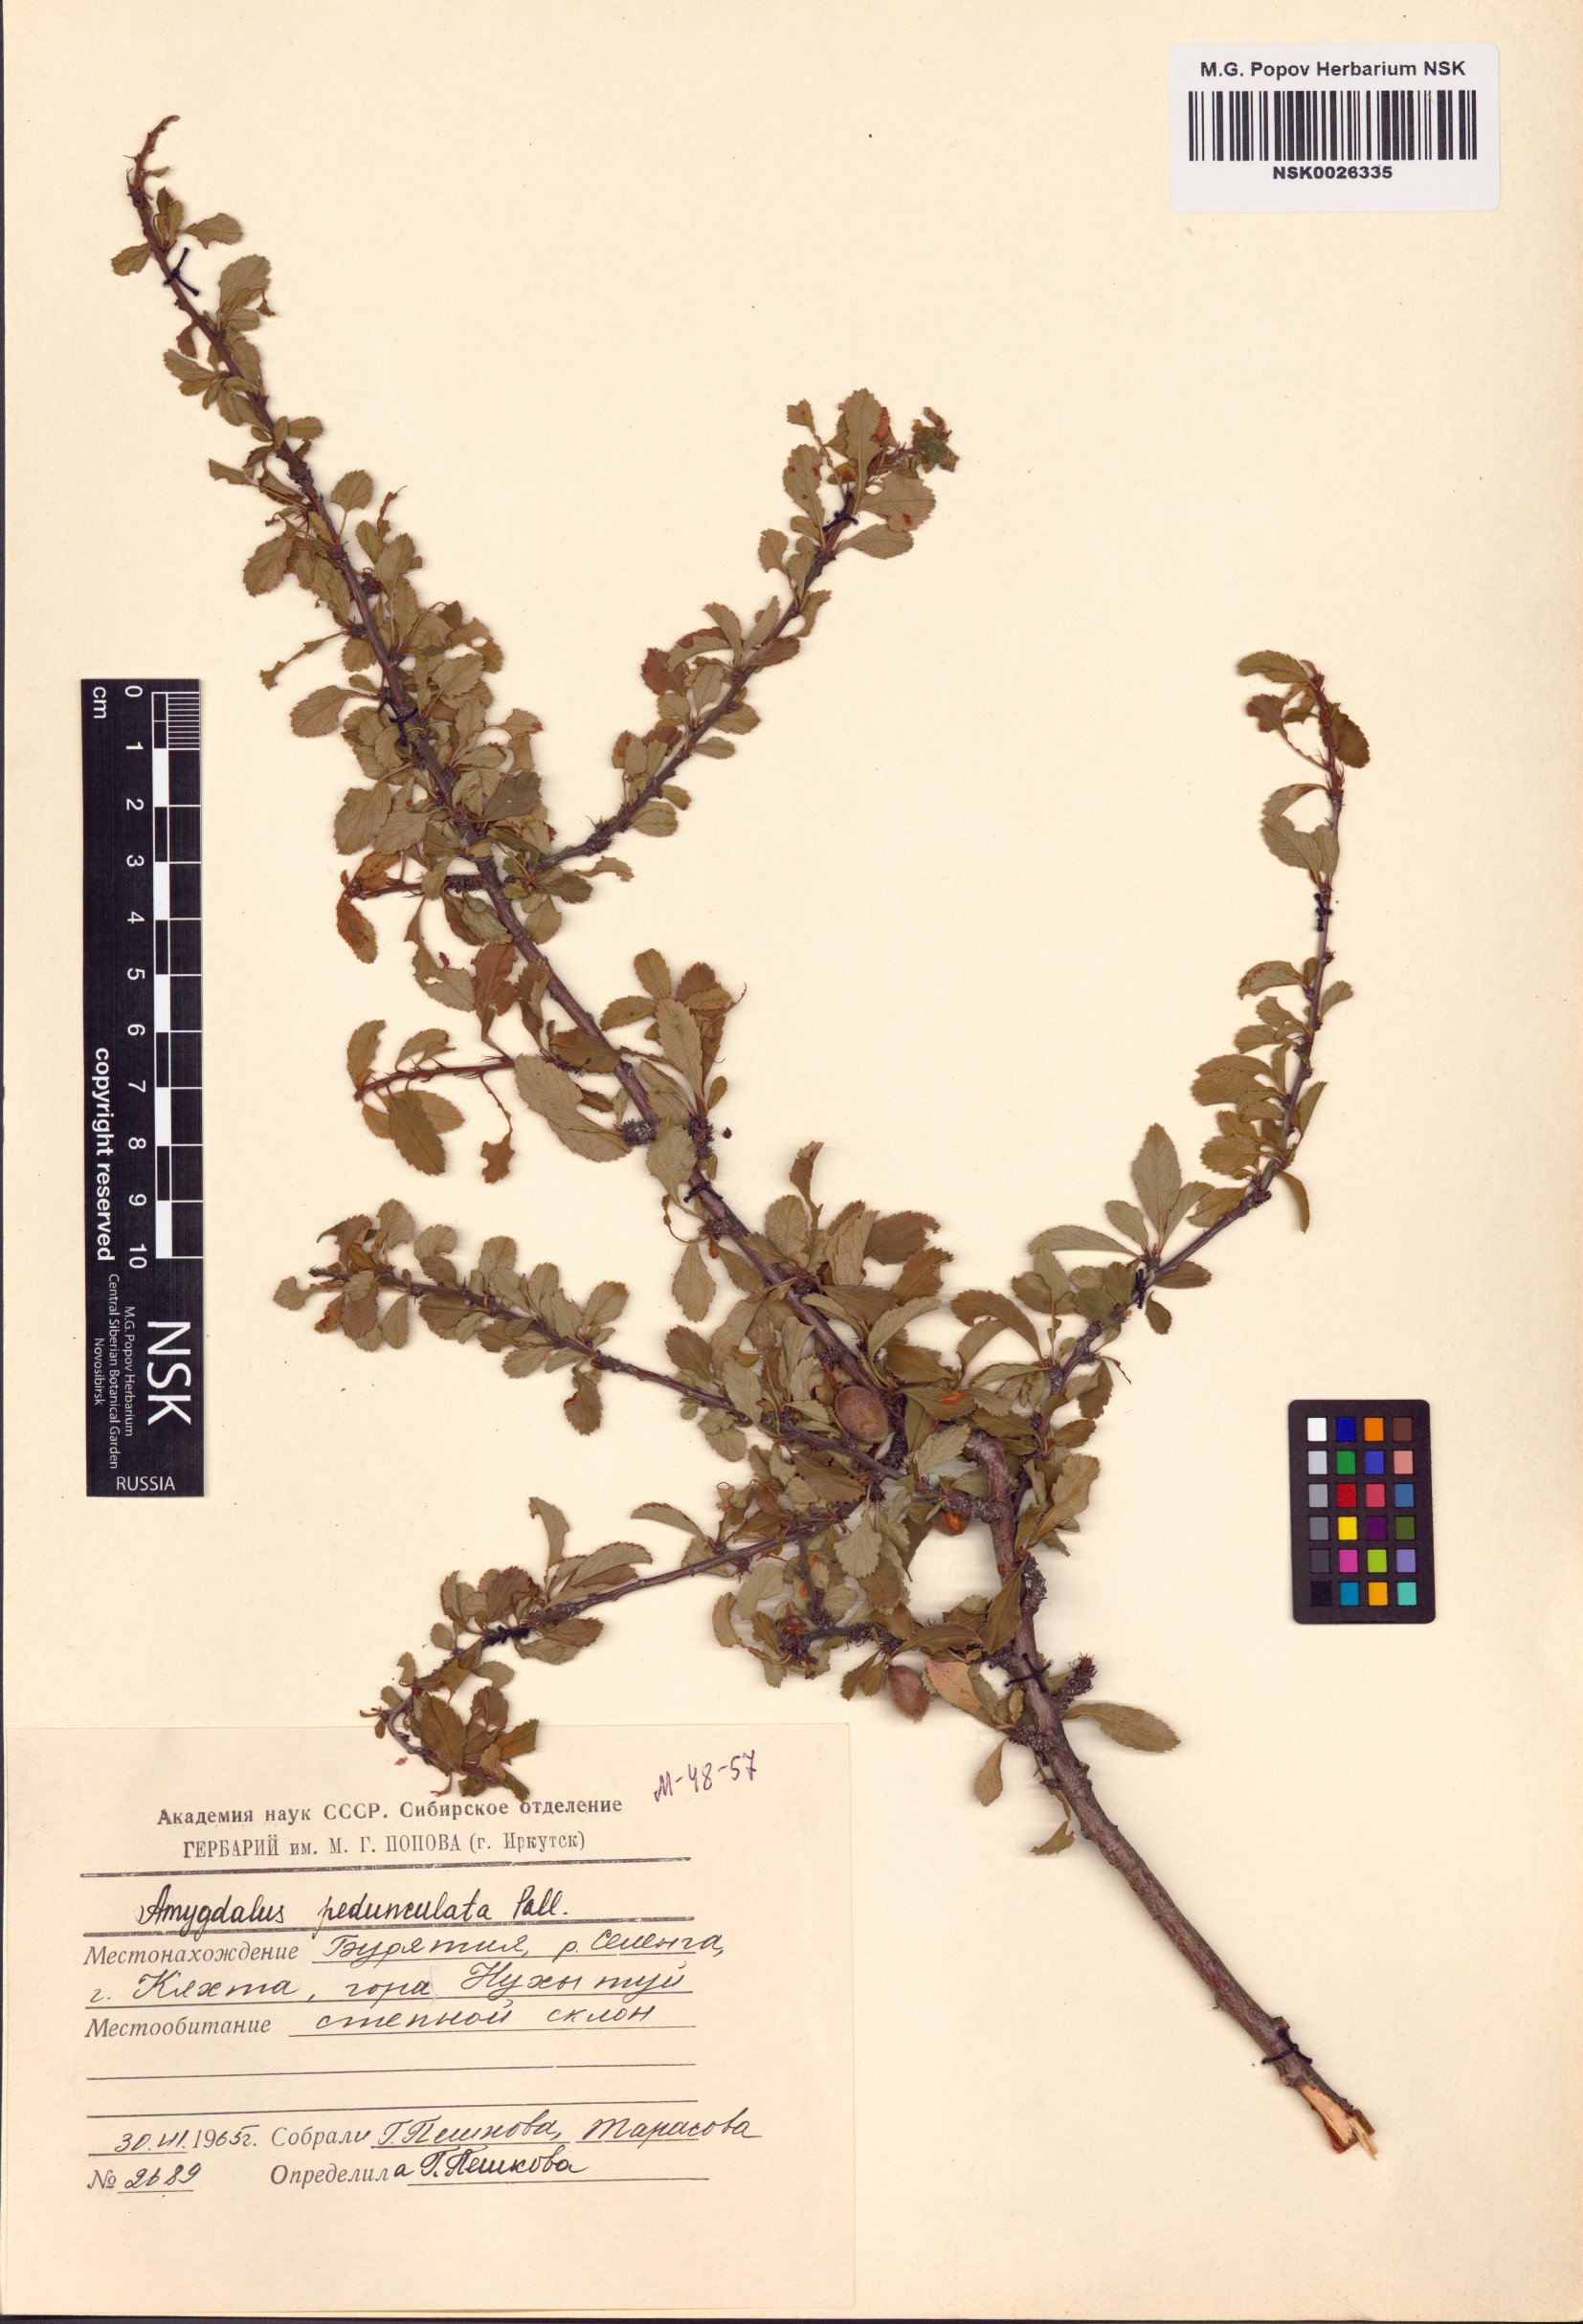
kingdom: Plantae
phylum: Tracheophyta
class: Magnoliopsida
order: Rosales
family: Rosaceae
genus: Prunus
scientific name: Prunus pedunculata
